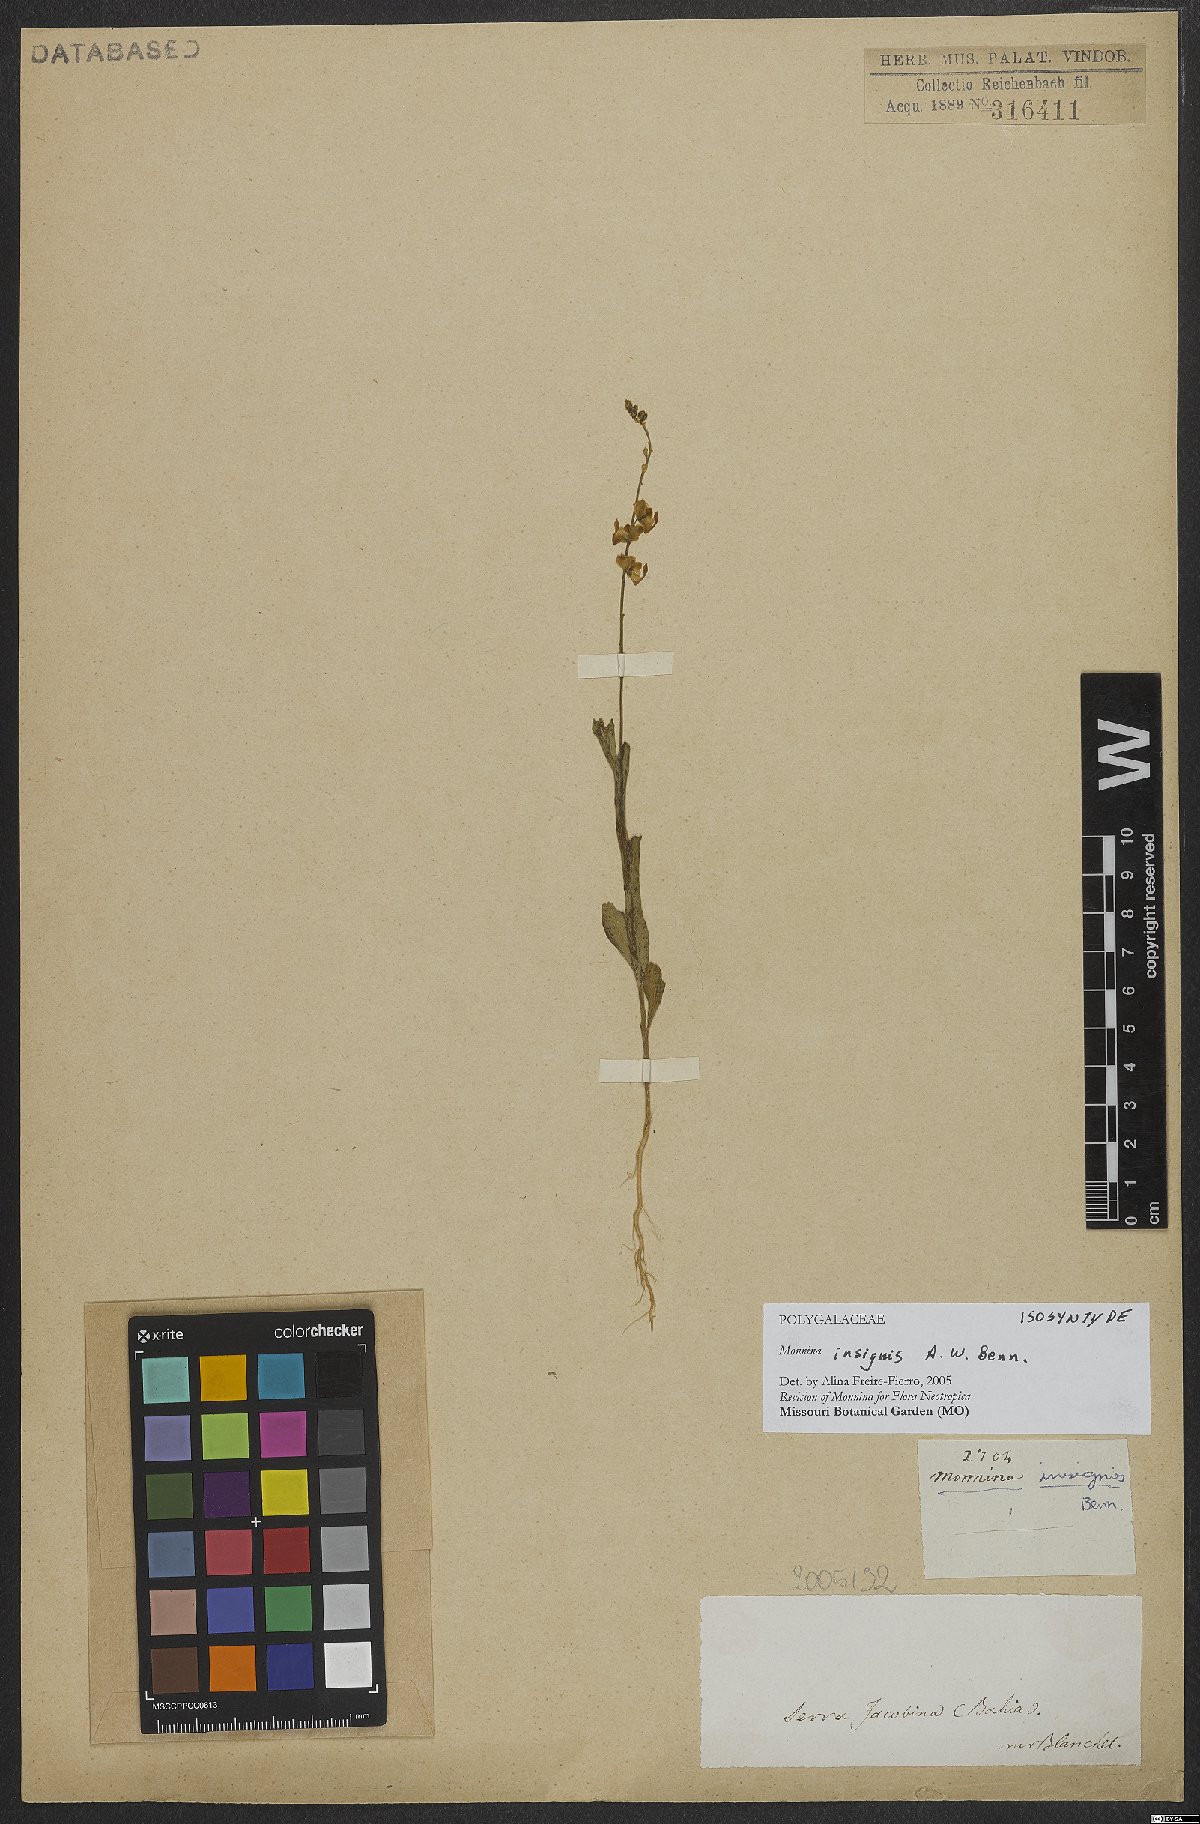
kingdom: Plantae
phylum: Tracheophyta
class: Magnoliopsida
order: Fabales
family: Polygalaceae
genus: Ancylotropis
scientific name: Ancylotropis insignis
